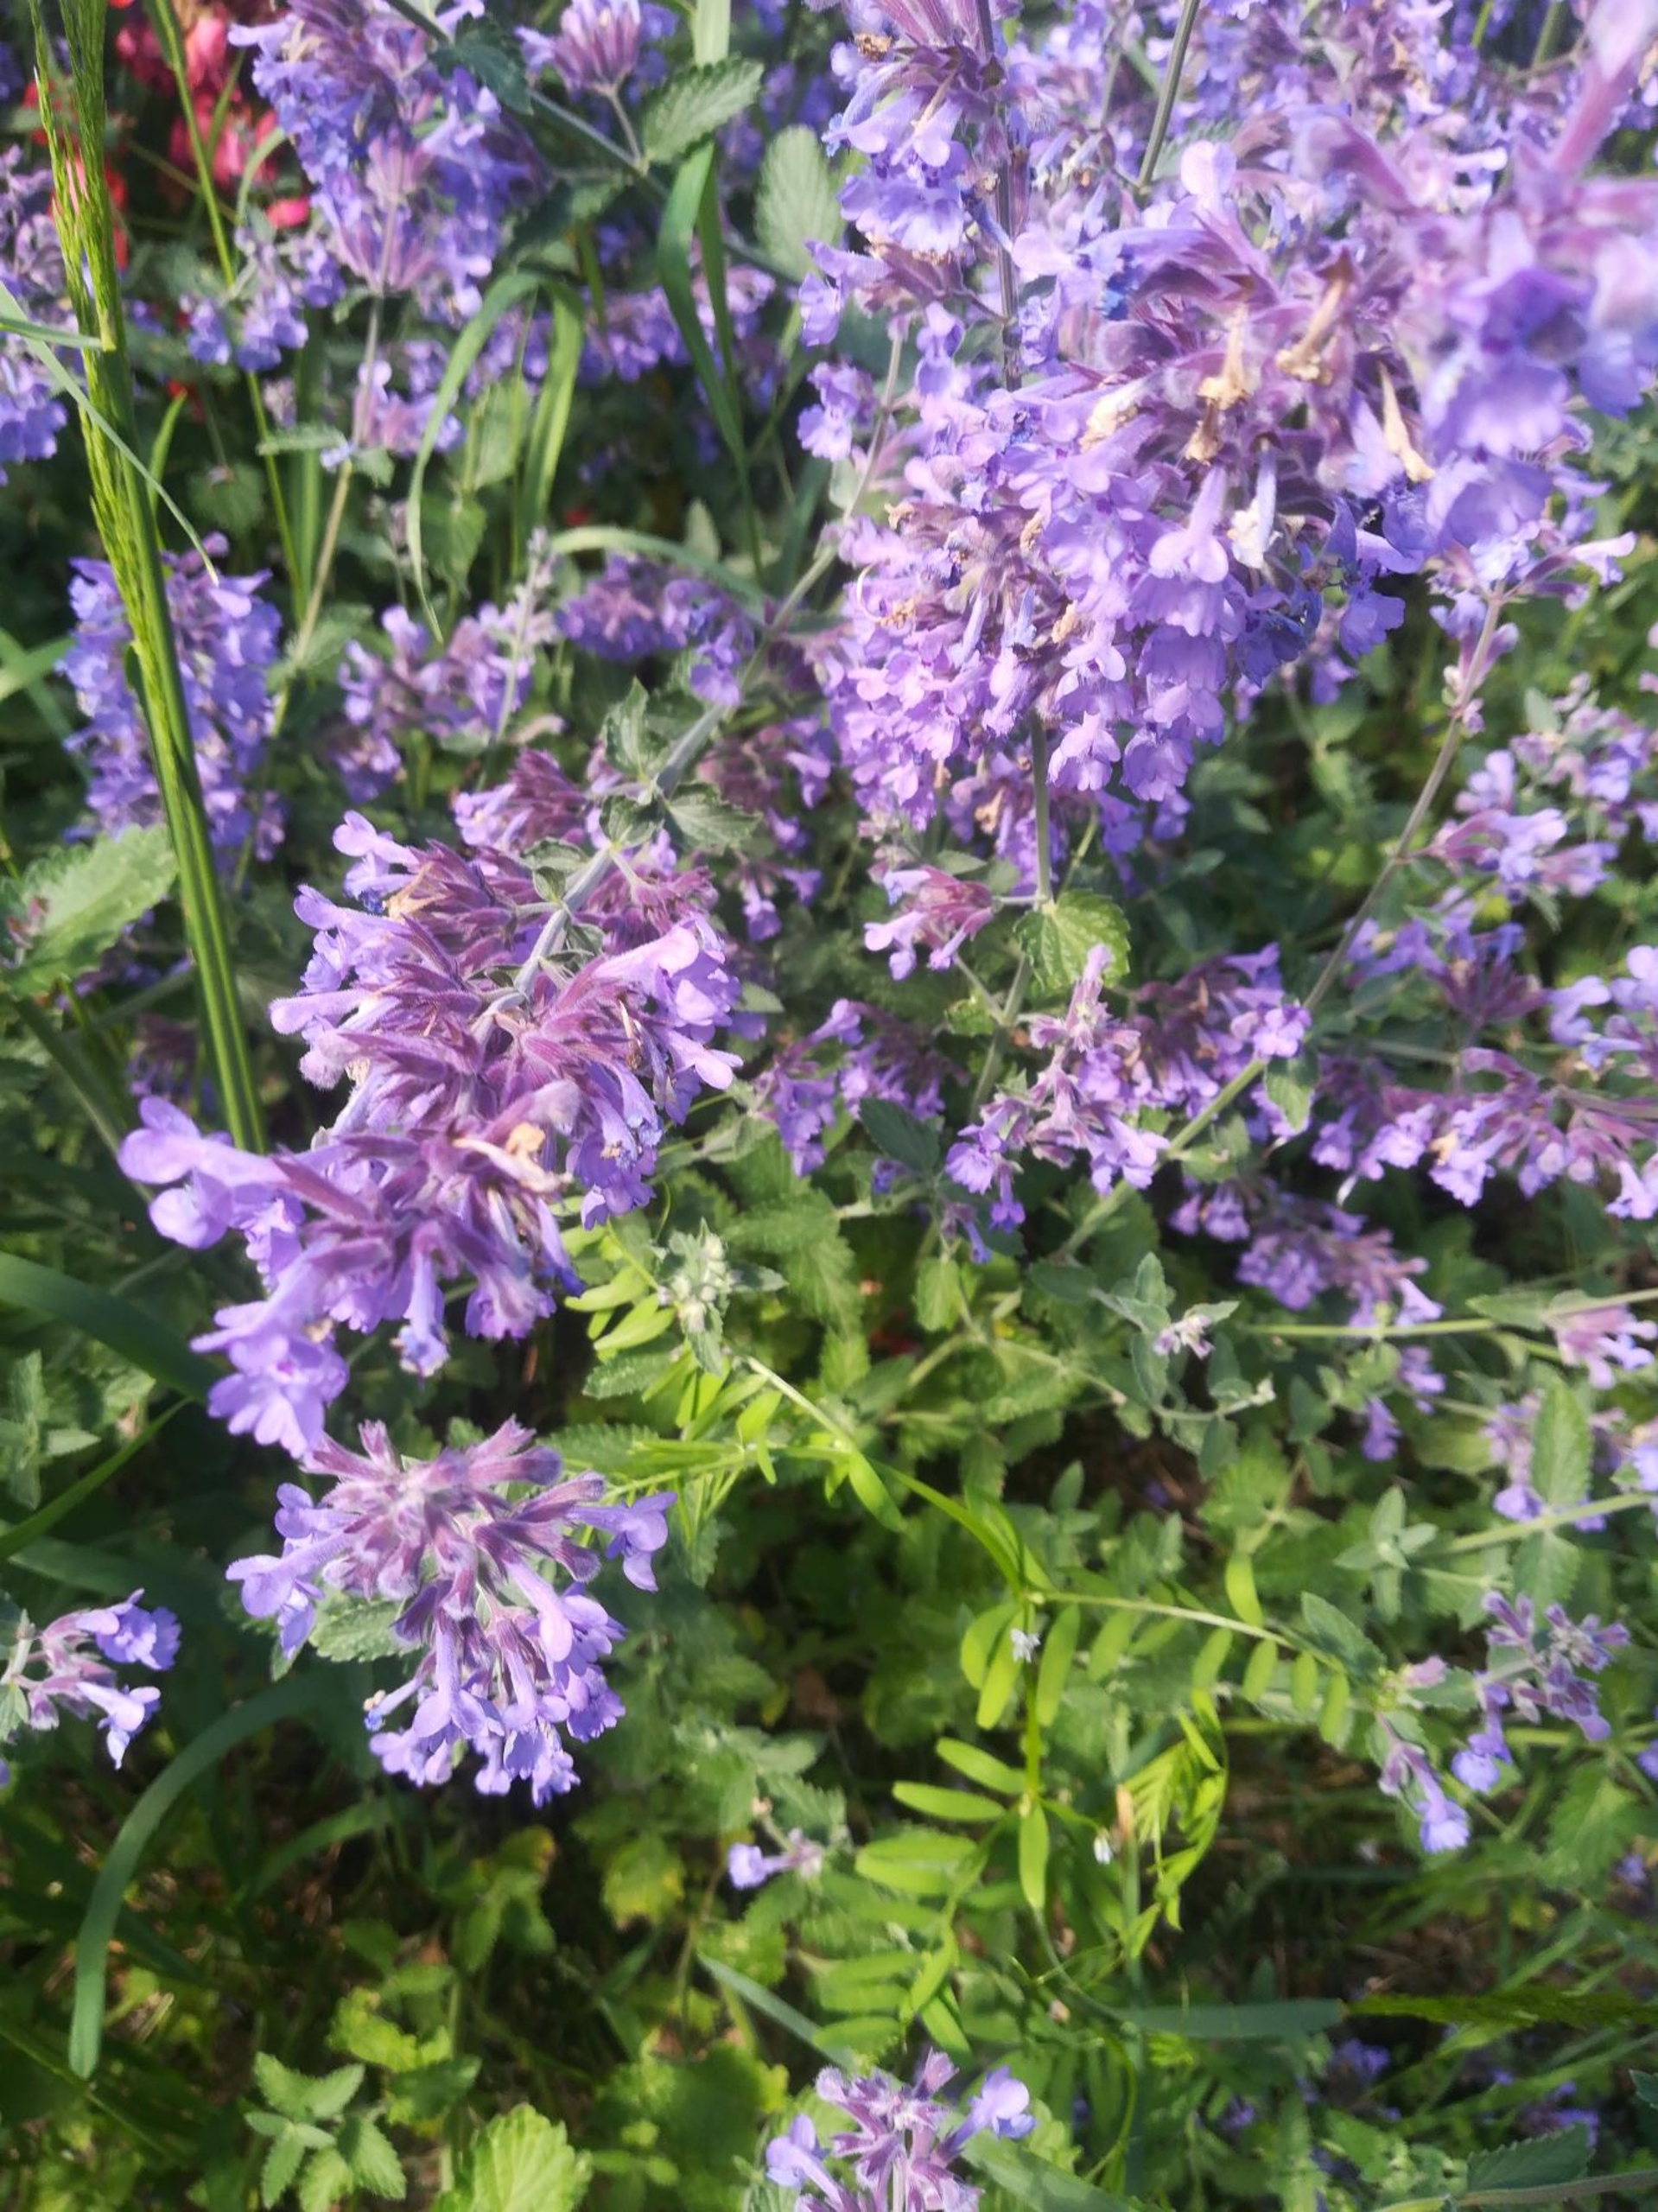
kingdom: Plantae
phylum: Tracheophyta
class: Magnoliopsida
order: Lamiales
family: Lamiaceae
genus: Nepeta
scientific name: Nepeta faassenii
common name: Almindelig blåkant
